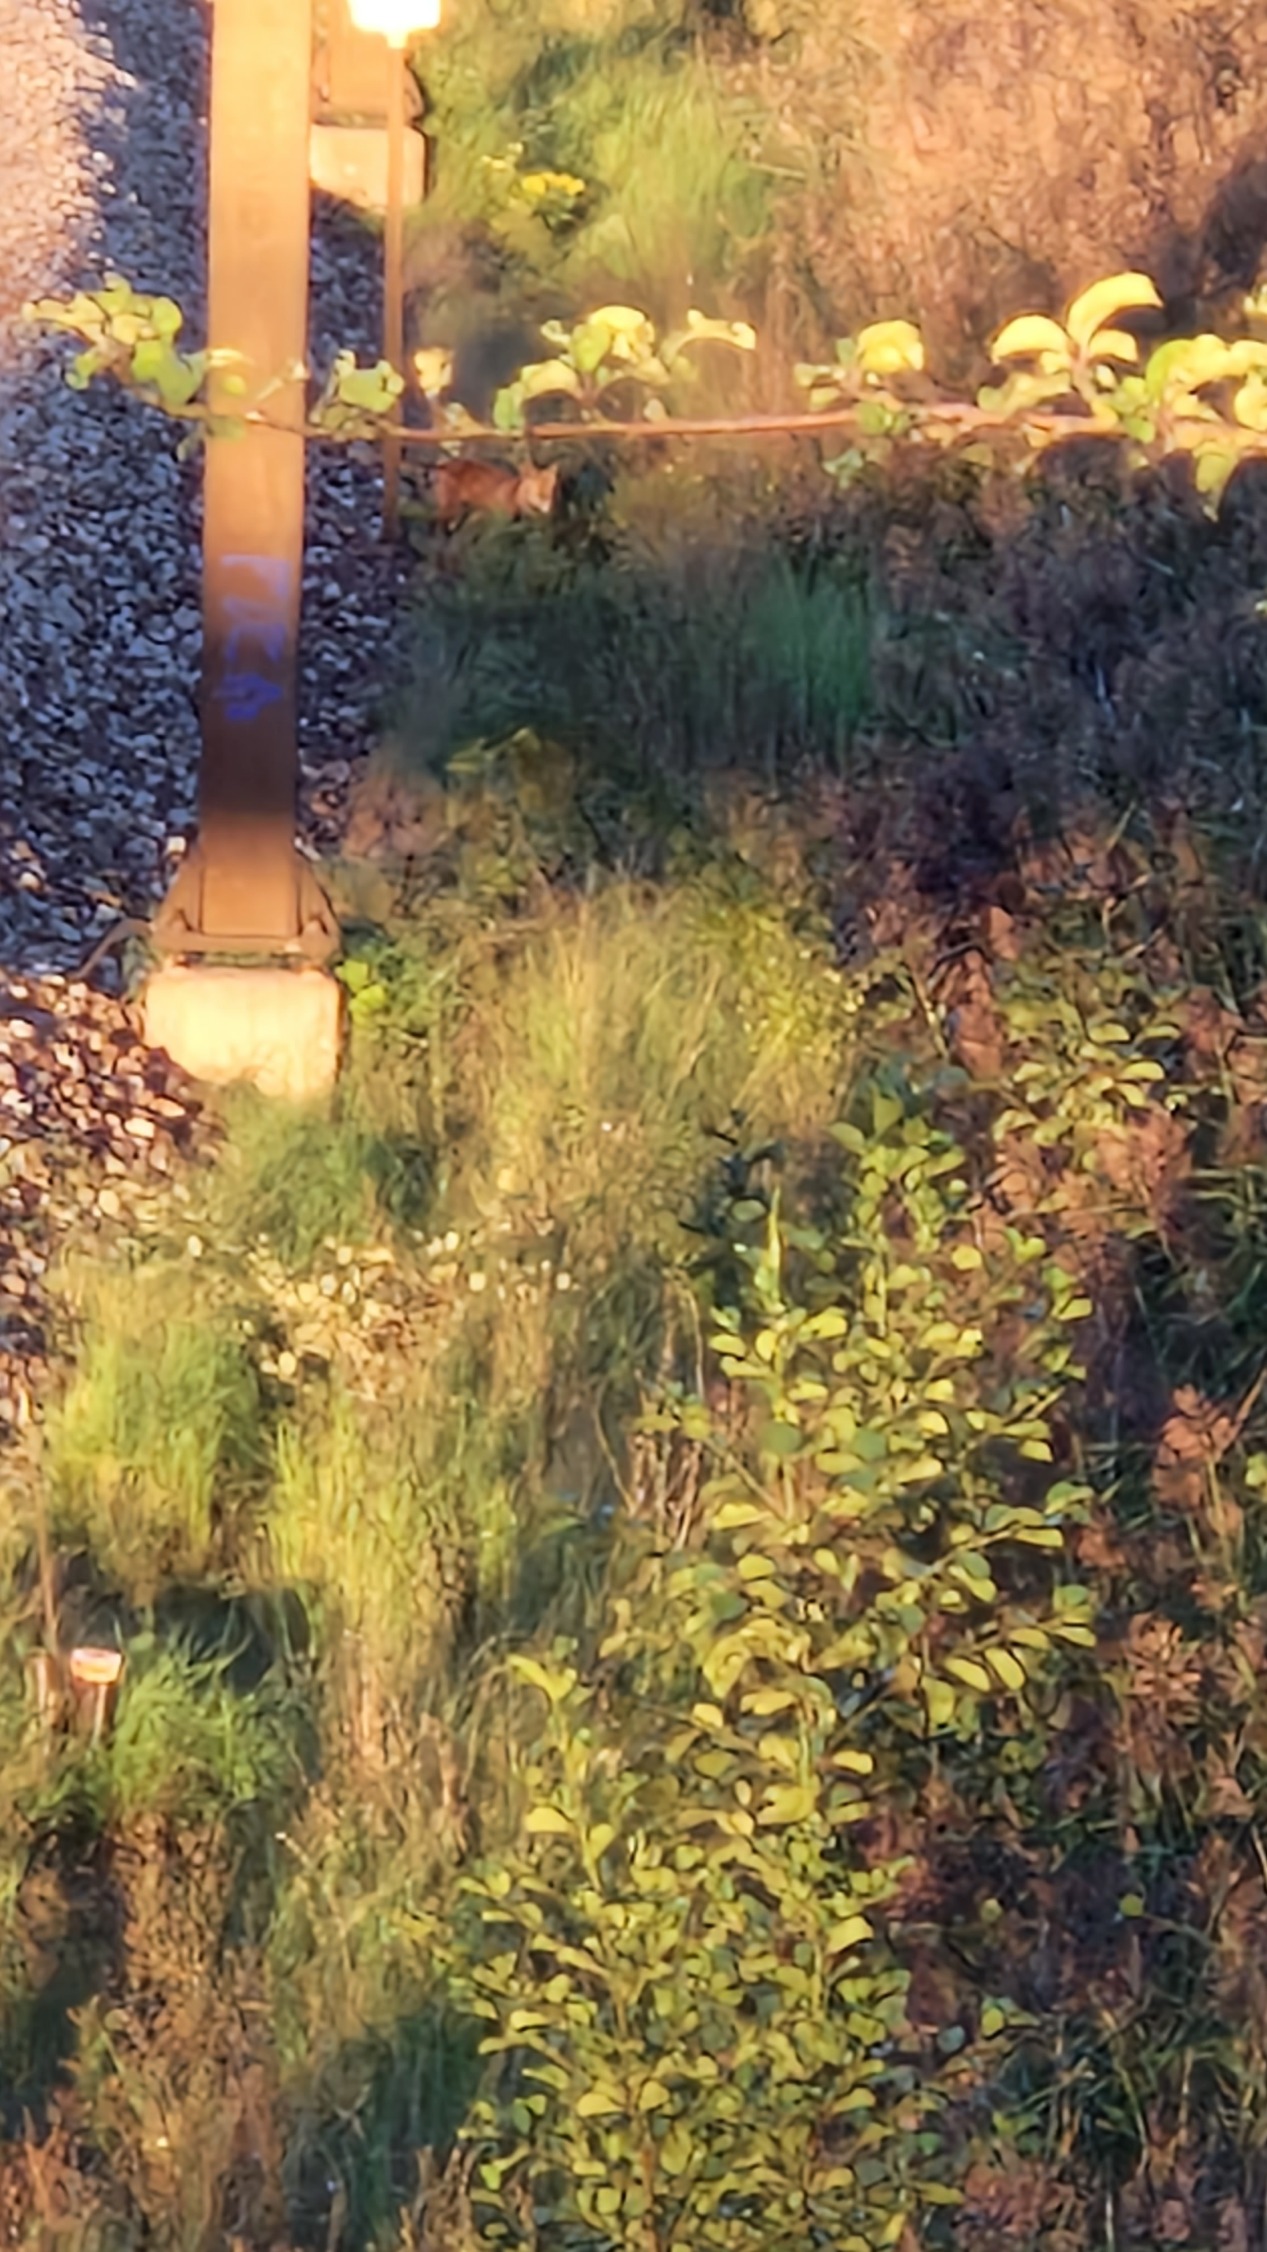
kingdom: Animalia
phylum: Chordata
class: Mammalia
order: Carnivora
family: Canidae
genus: Vulpes
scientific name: Vulpes vulpes
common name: Ræv
